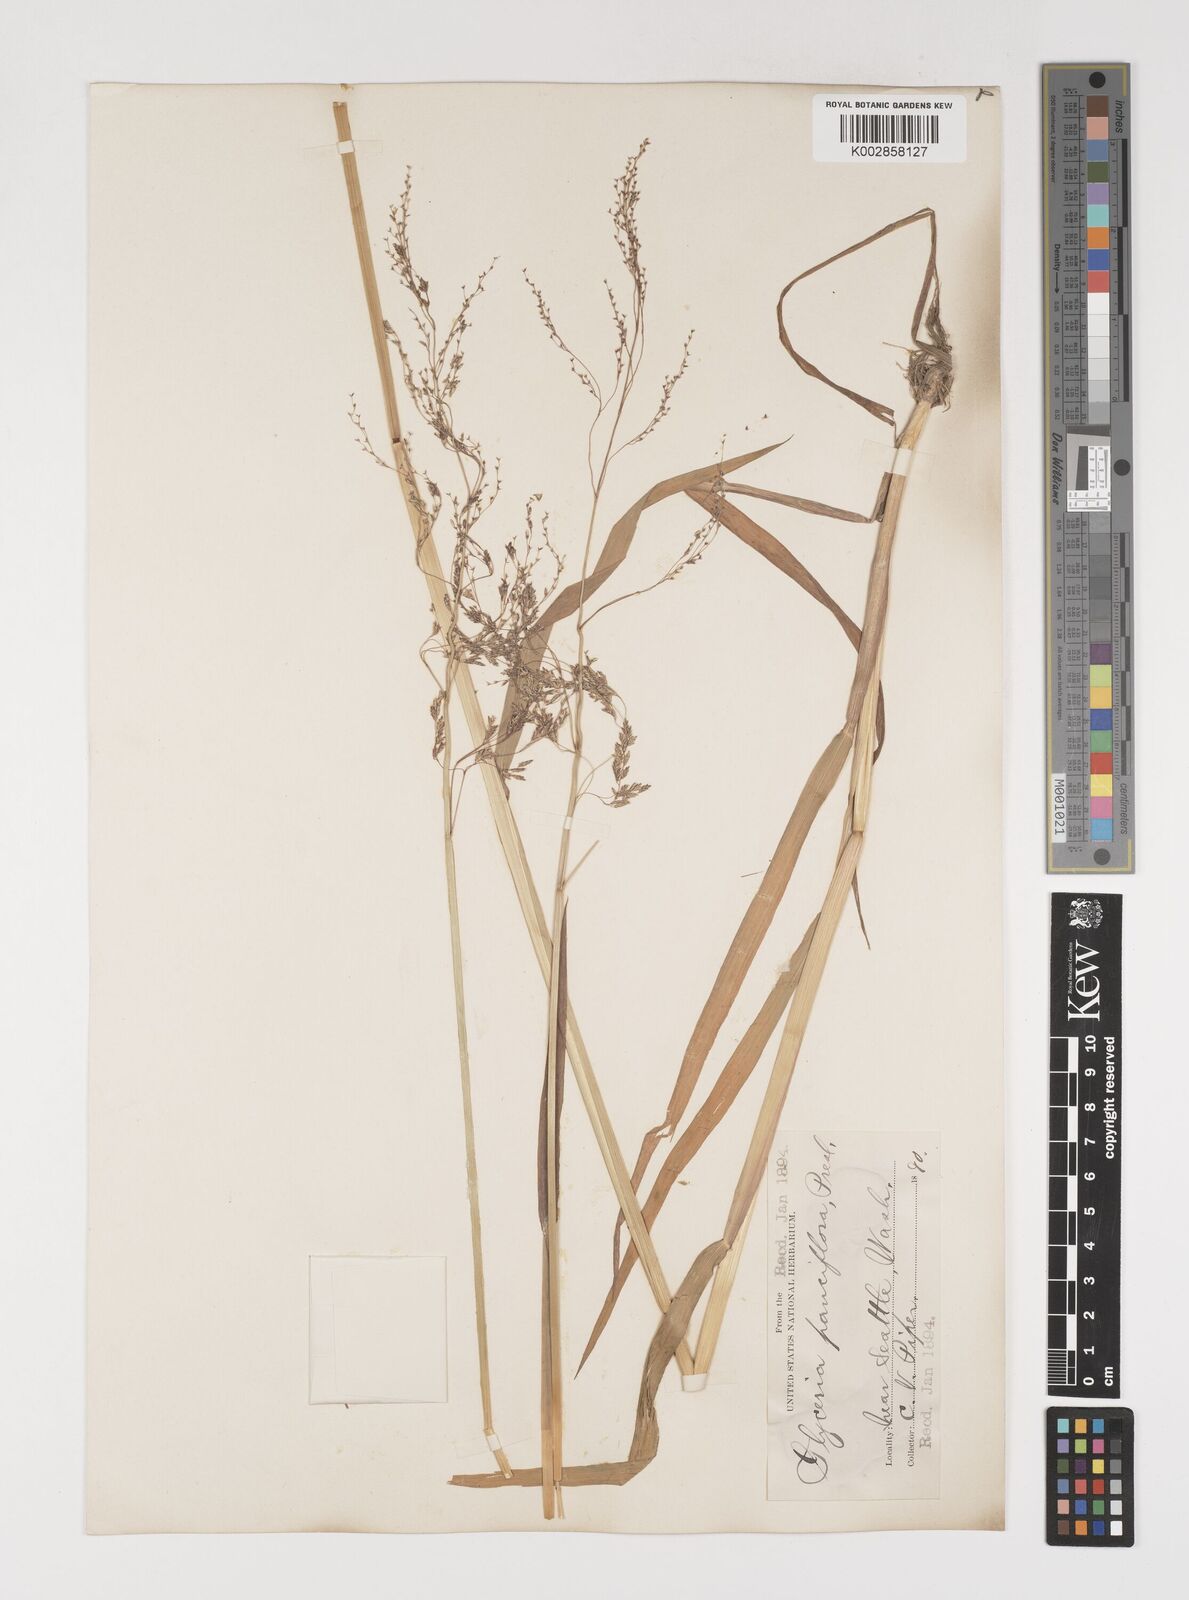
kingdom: Plantae
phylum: Tracheophyta
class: Liliopsida
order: Poales
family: Poaceae
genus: Torreyochloa
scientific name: Torreyochloa pallida
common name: Pale false mannagrass
